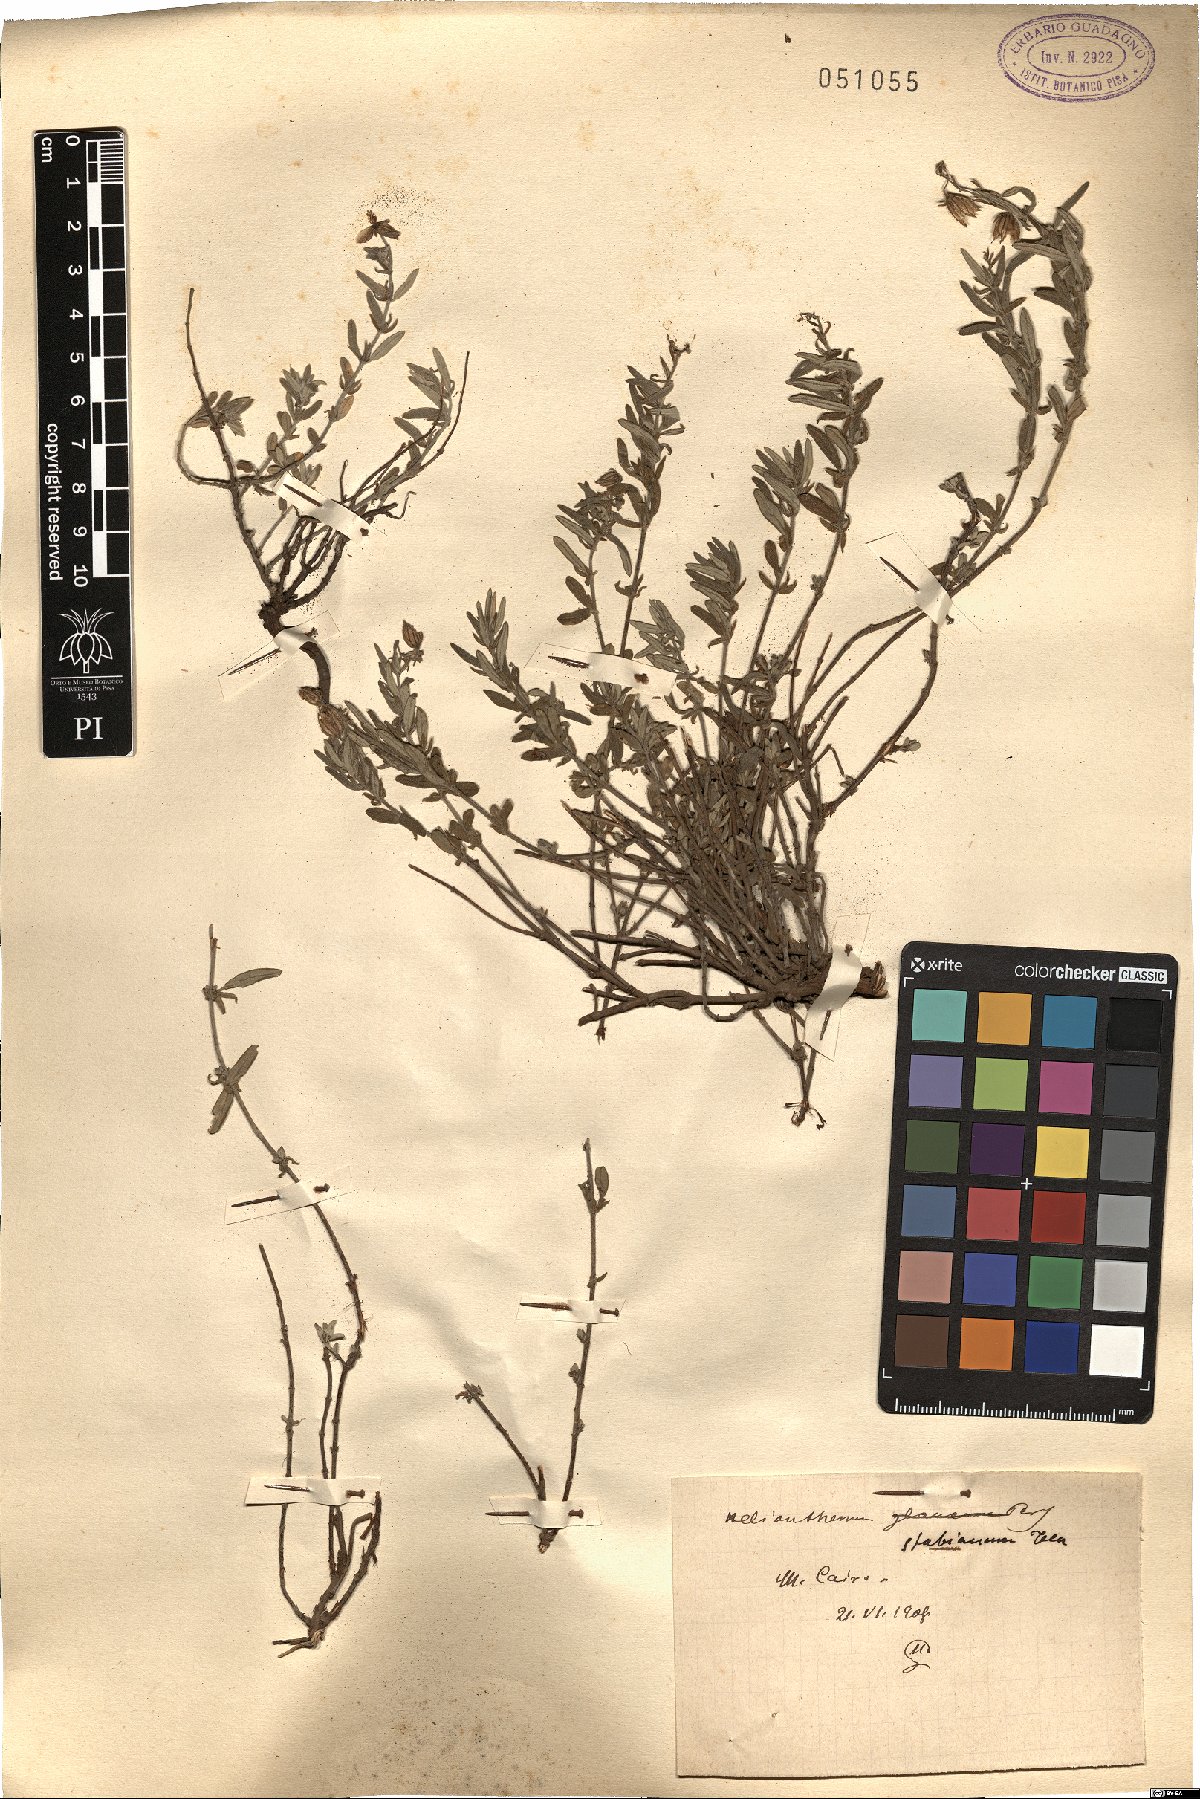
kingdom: Plantae
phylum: Tracheophyta
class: Magnoliopsida
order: Malvales
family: Cistaceae
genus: Helianthemum
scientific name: Helianthemum croceum
